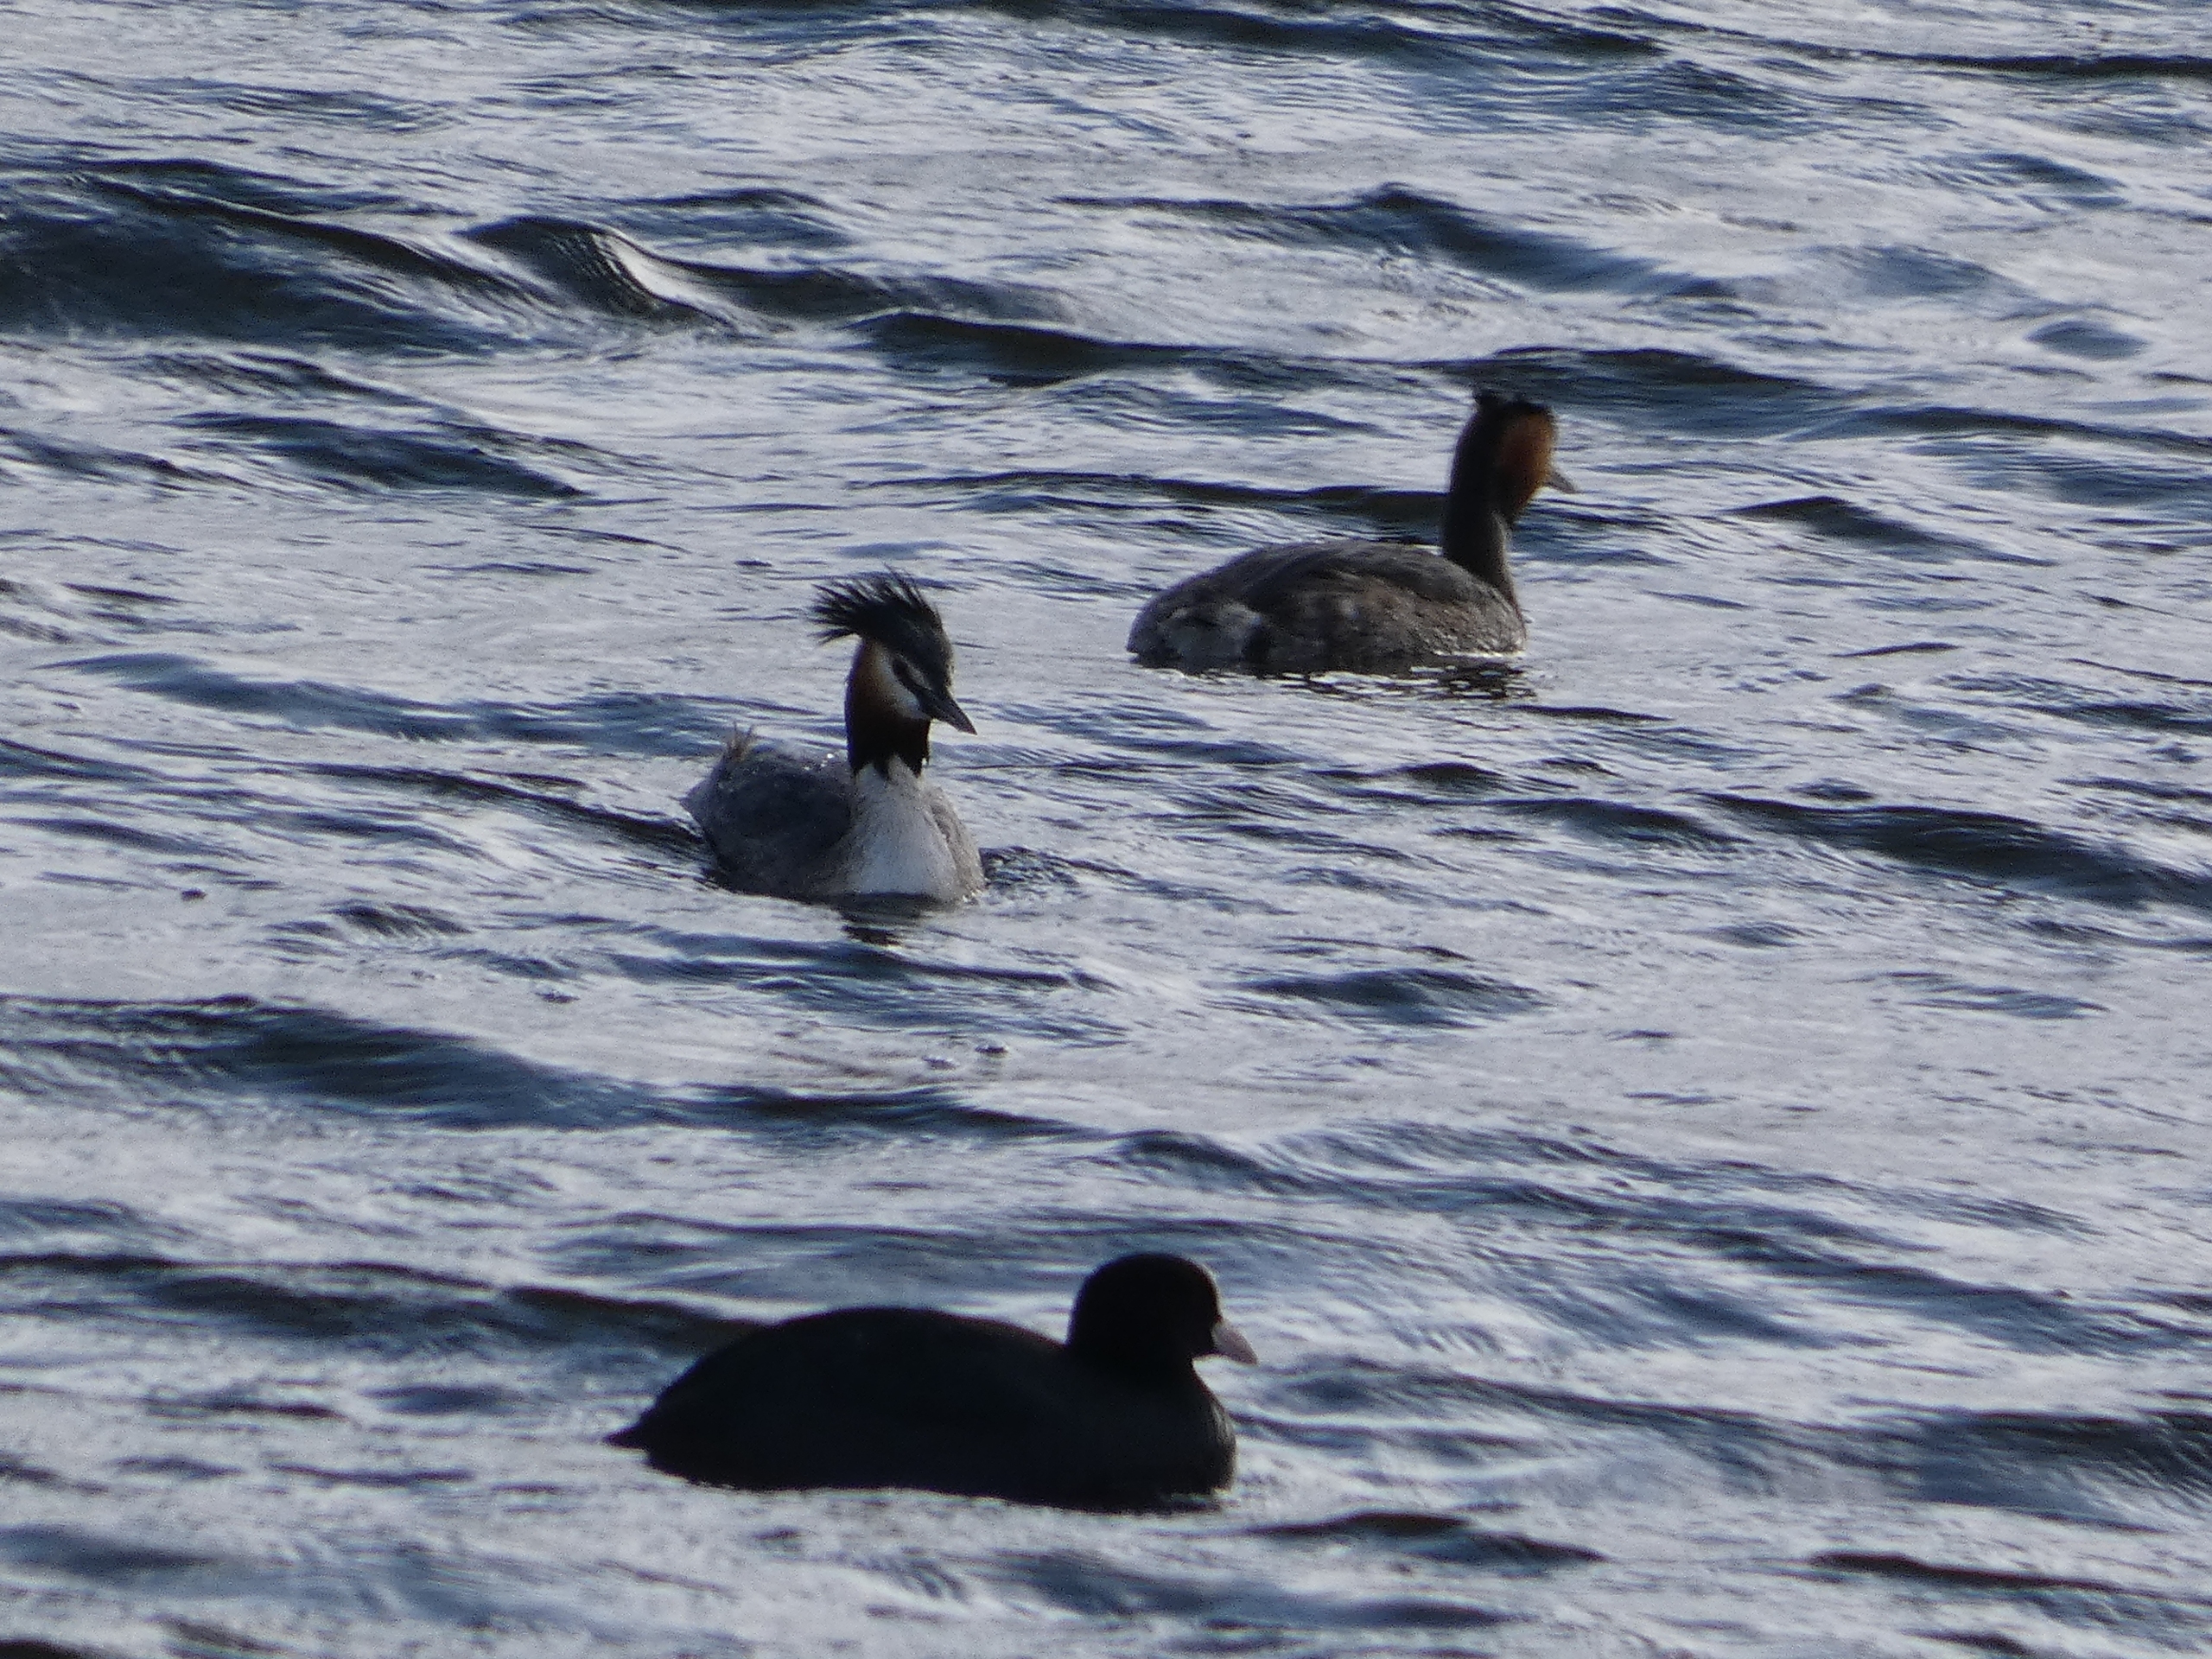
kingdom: Animalia
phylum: Chordata
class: Aves
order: Gruiformes
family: Rallidae
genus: Fulica
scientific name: Fulica atra
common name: Blishøne
